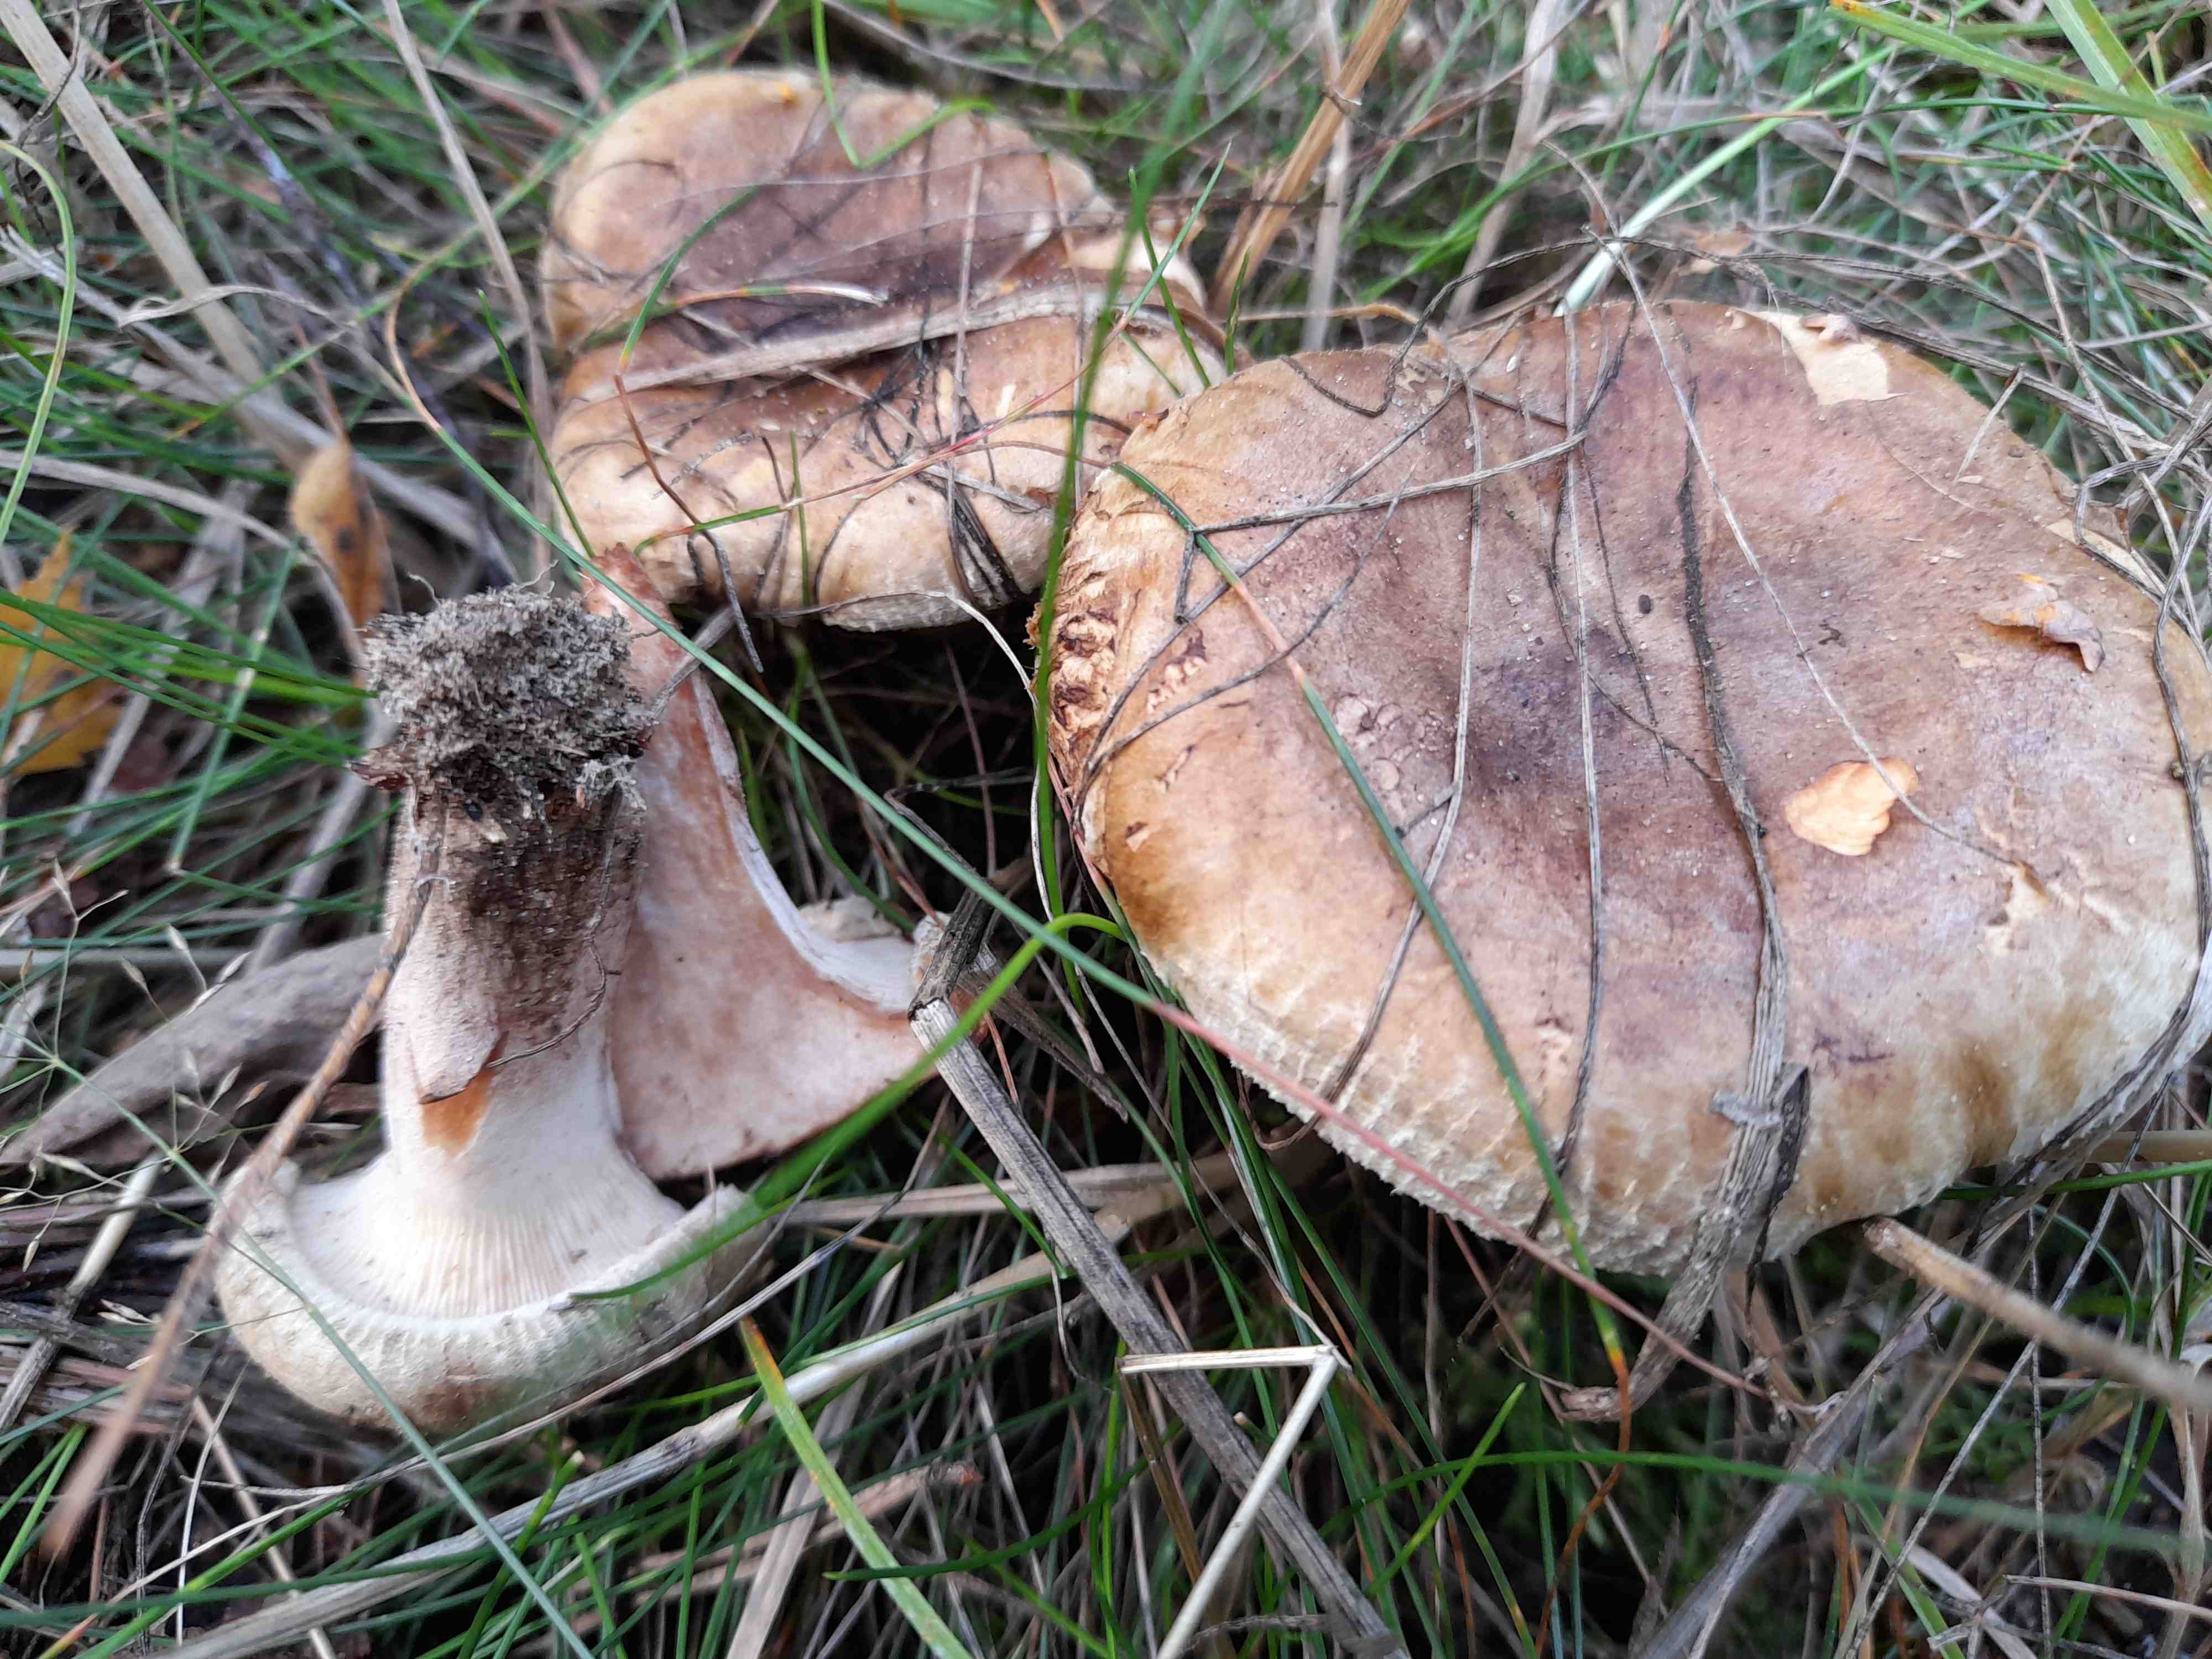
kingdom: Fungi
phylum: Basidiomycota
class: Agaricomycetes
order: Boletales
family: Paxillaceae
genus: Paxillus
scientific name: Paxillus involutus
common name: almindelig netbladhat
